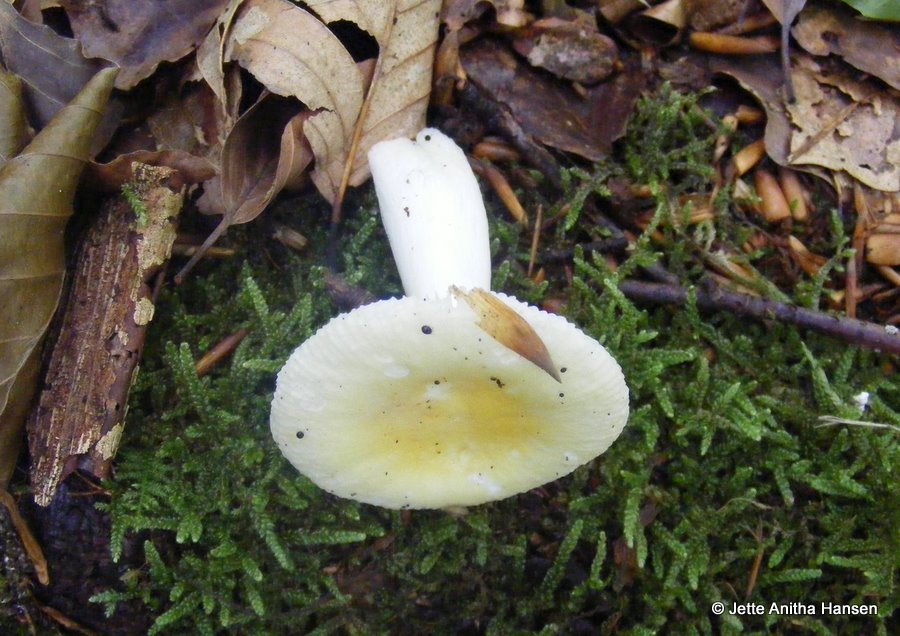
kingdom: Fungi
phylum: Basidiomycota
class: Agaricomycetes
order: Russulales
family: Russulaceae
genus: Russula
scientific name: Russula solaris
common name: sol-skørhat
